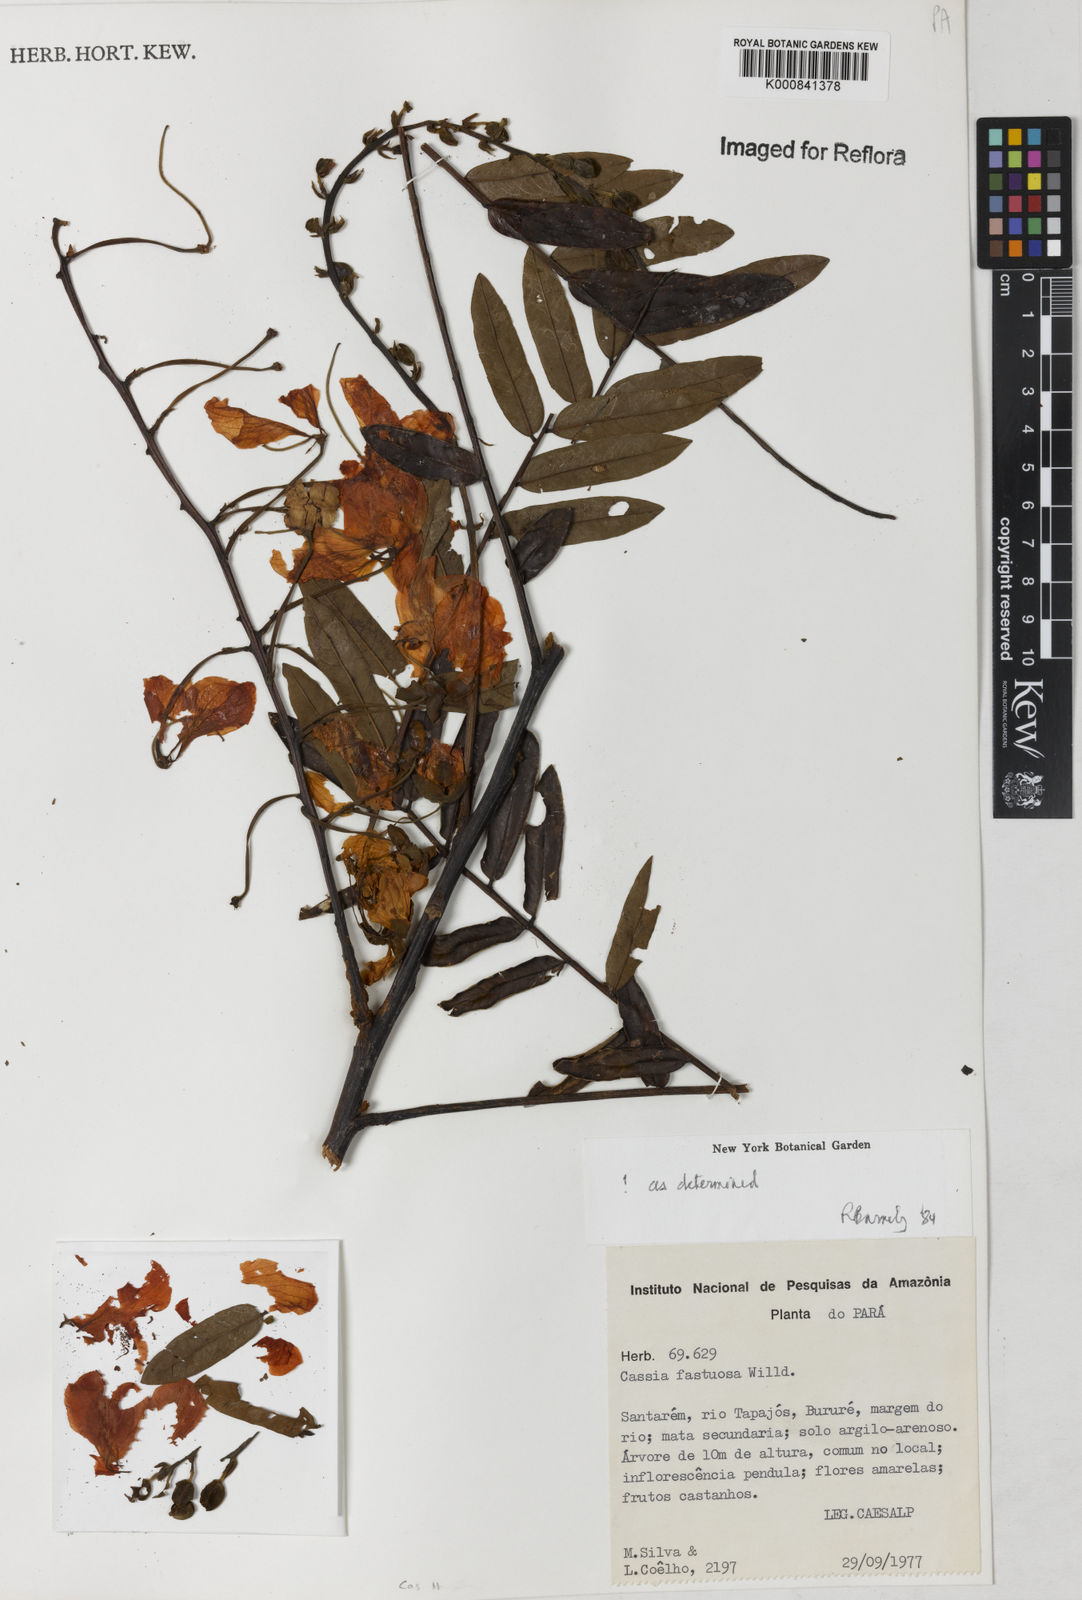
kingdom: Plantae
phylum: Tracheophyta
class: Magnoliopsida
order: Fabales
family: Fabaceae
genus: Cassia
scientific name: Cassia
